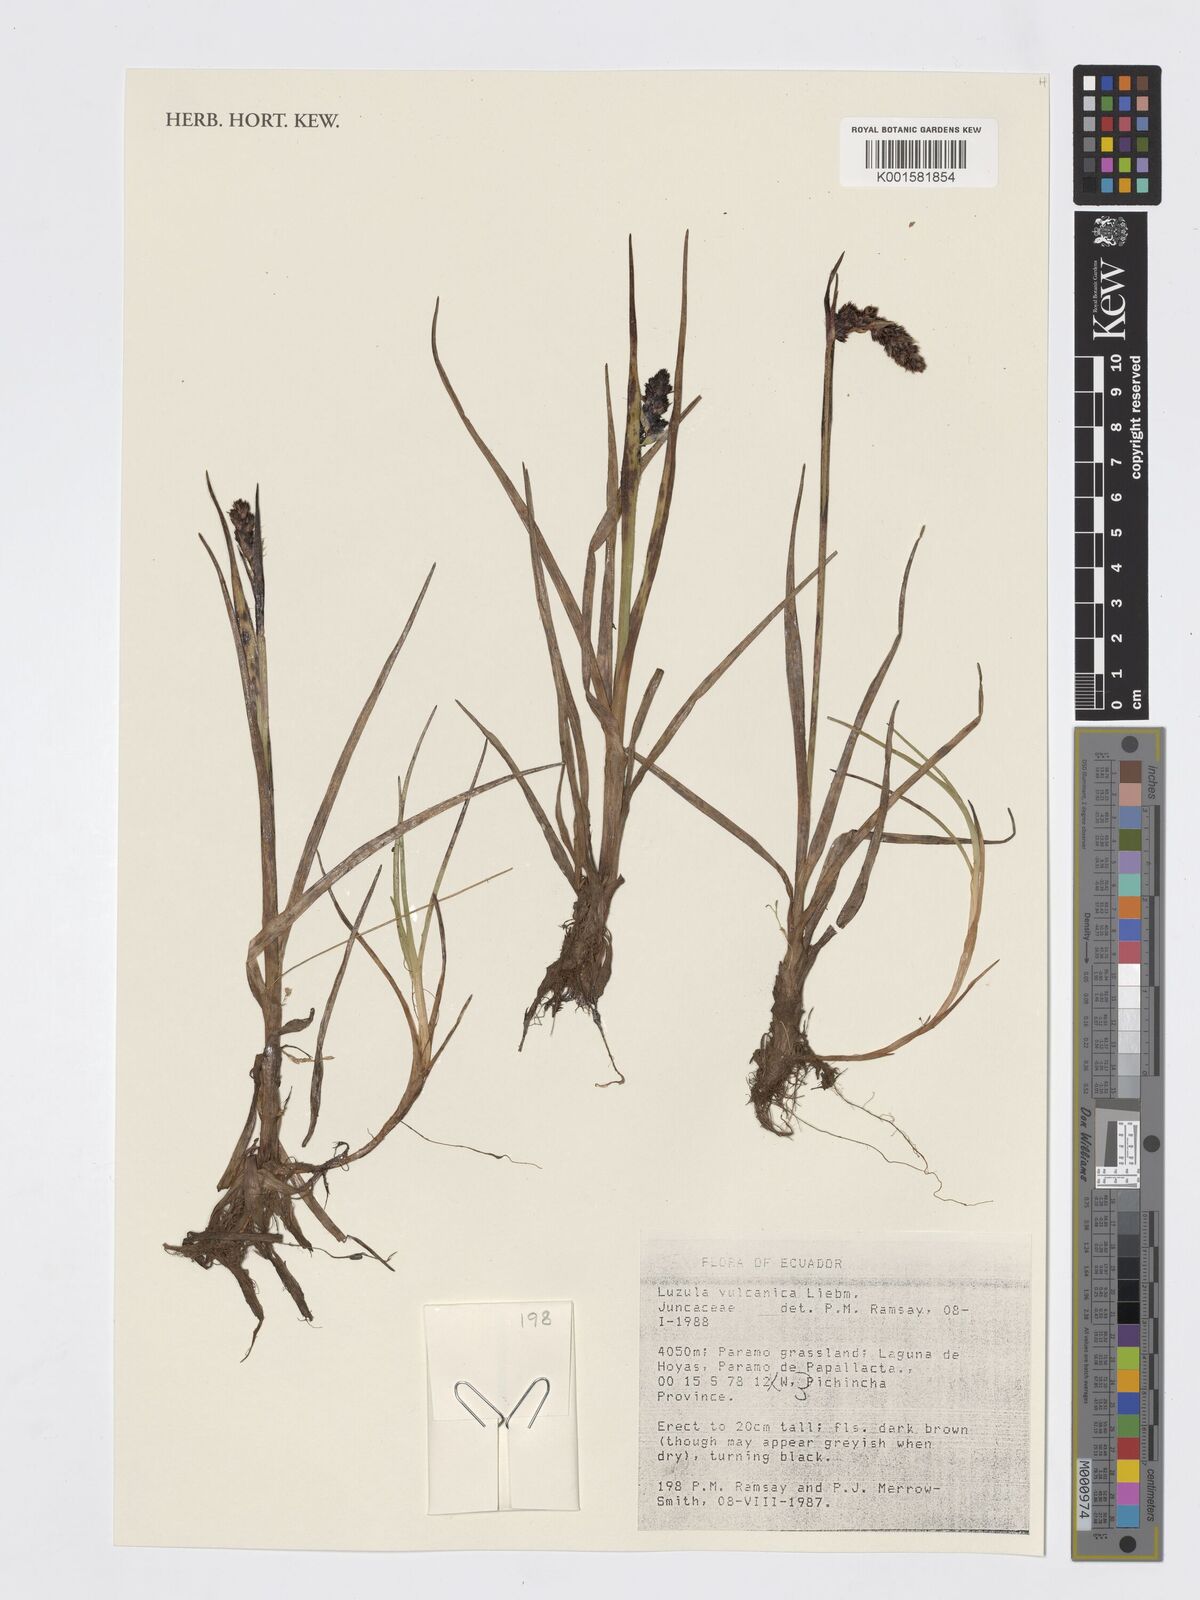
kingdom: Plantae
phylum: Tracheophyta
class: Liliopsida
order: Poales
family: Juncaceae
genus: Luzula
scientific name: Luzula vulcanica
